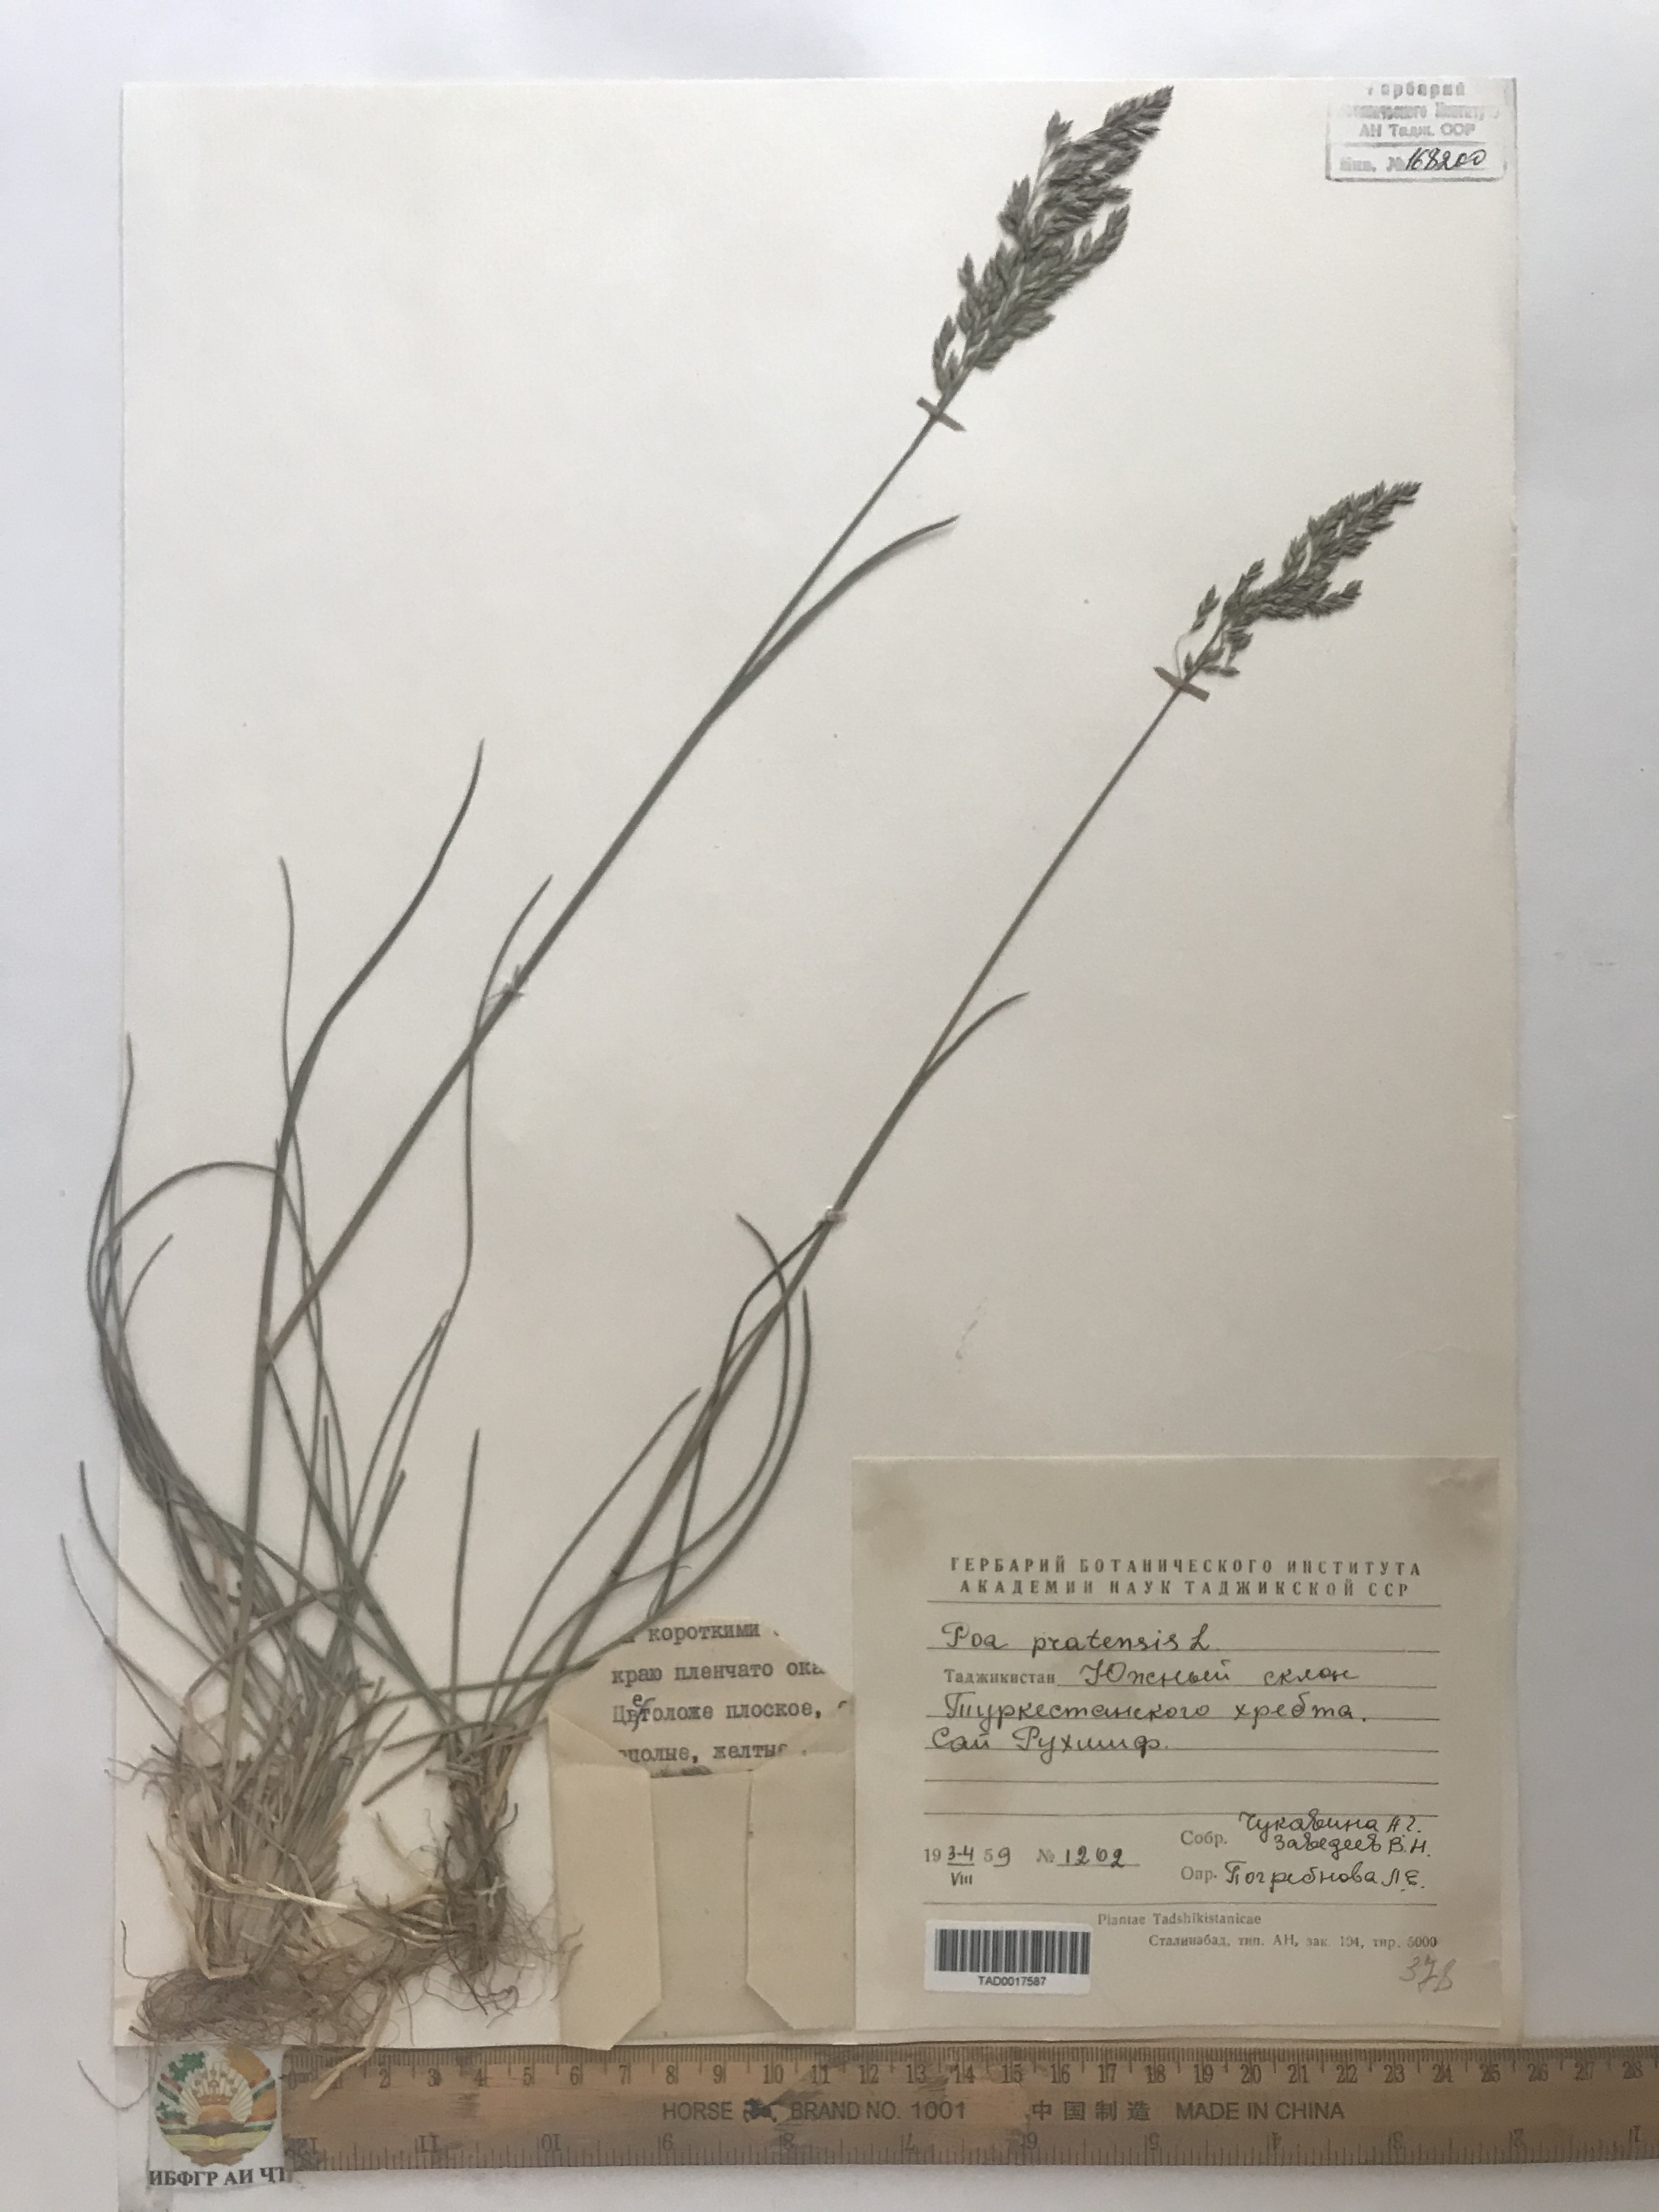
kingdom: Plantae
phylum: Tracheophyta
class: Liliopsida
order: Poales
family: Poaceae
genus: Poa
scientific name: Poa pratensis
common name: Kentucky bluegrass
